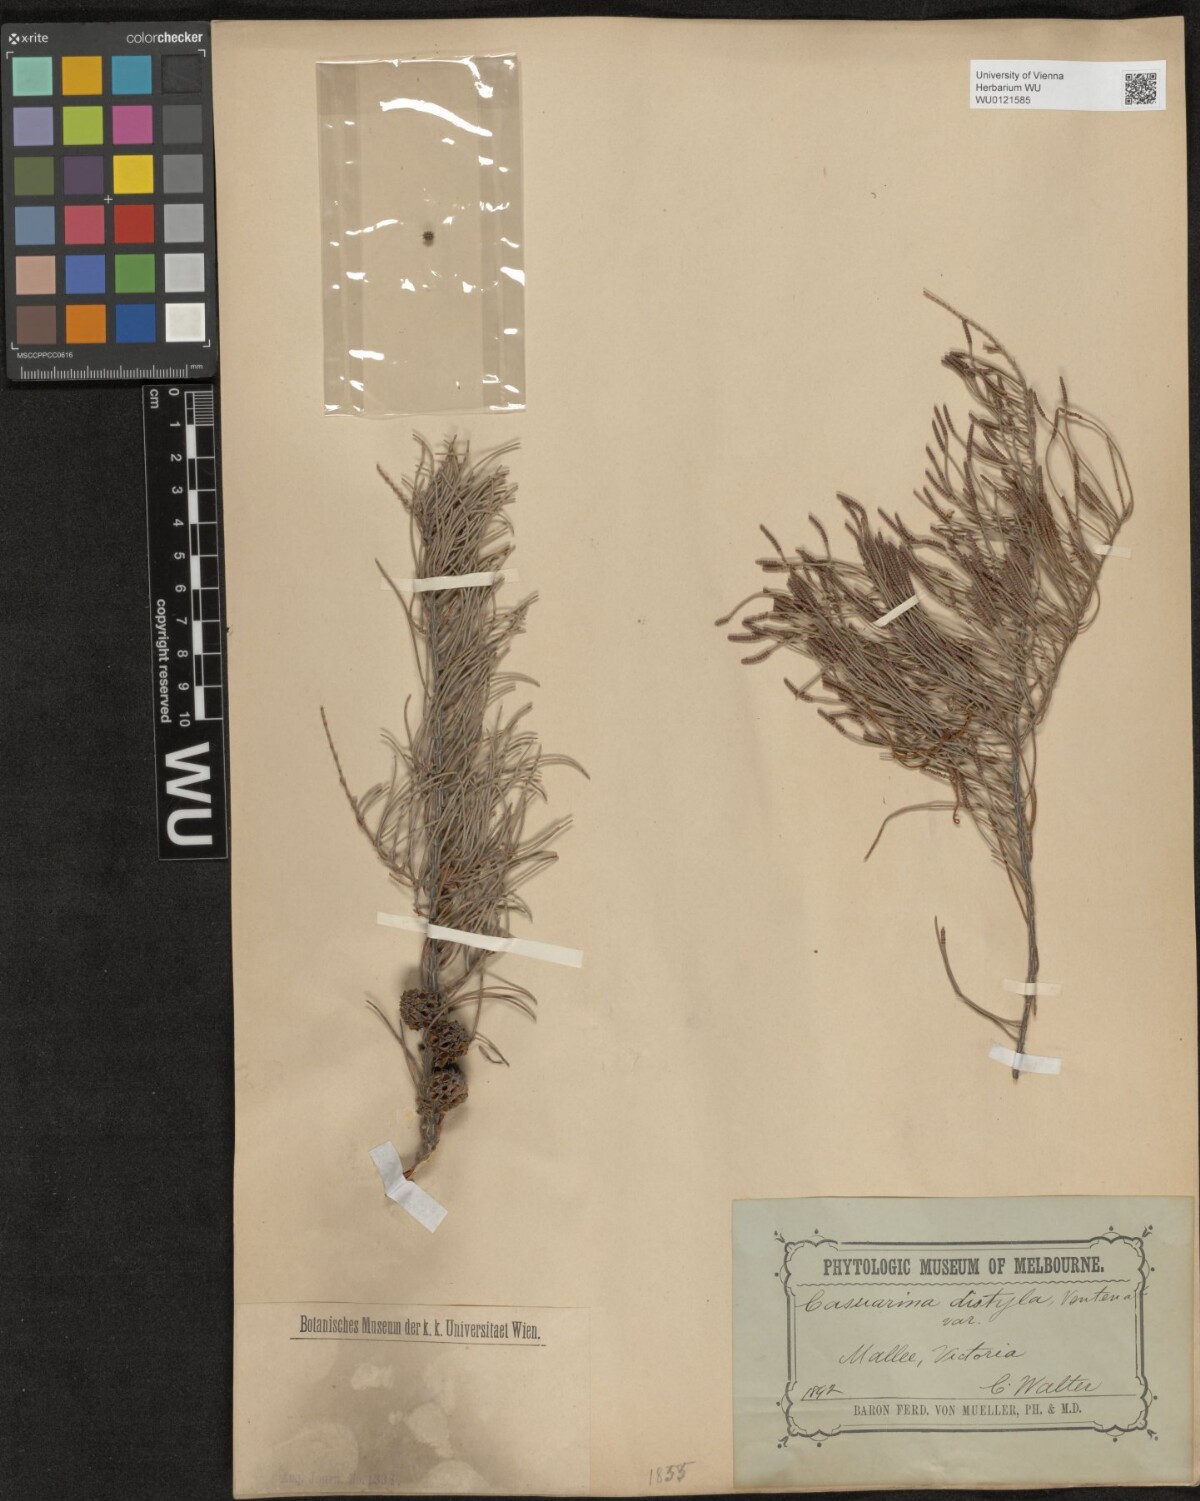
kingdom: Plantae
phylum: Tracheophyta
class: Magnoliopsida
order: Fagales
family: Casuarinaceae
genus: Allocasuarina
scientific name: Allocasuarina distyla
